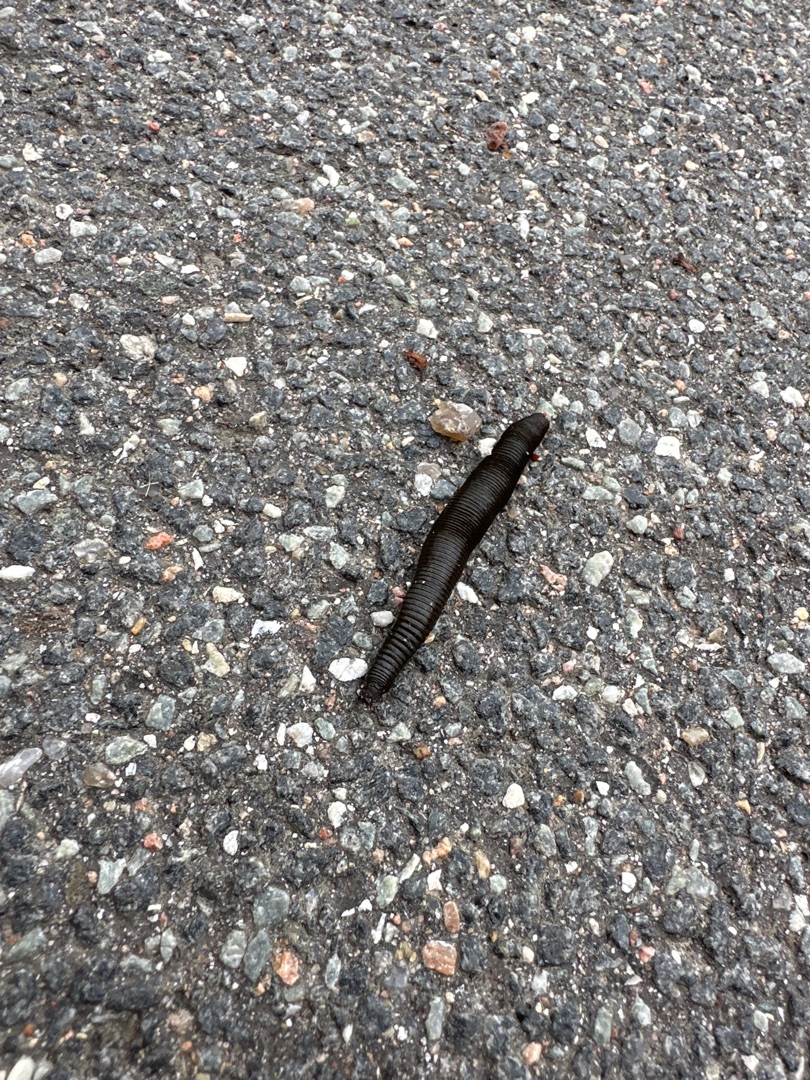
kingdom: Animalia
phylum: Annelida
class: Clitellata
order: Arhynchobdellida
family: Haemopidae
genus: Haemopis
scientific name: Haemopis sanguisuga
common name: Hesteigle
